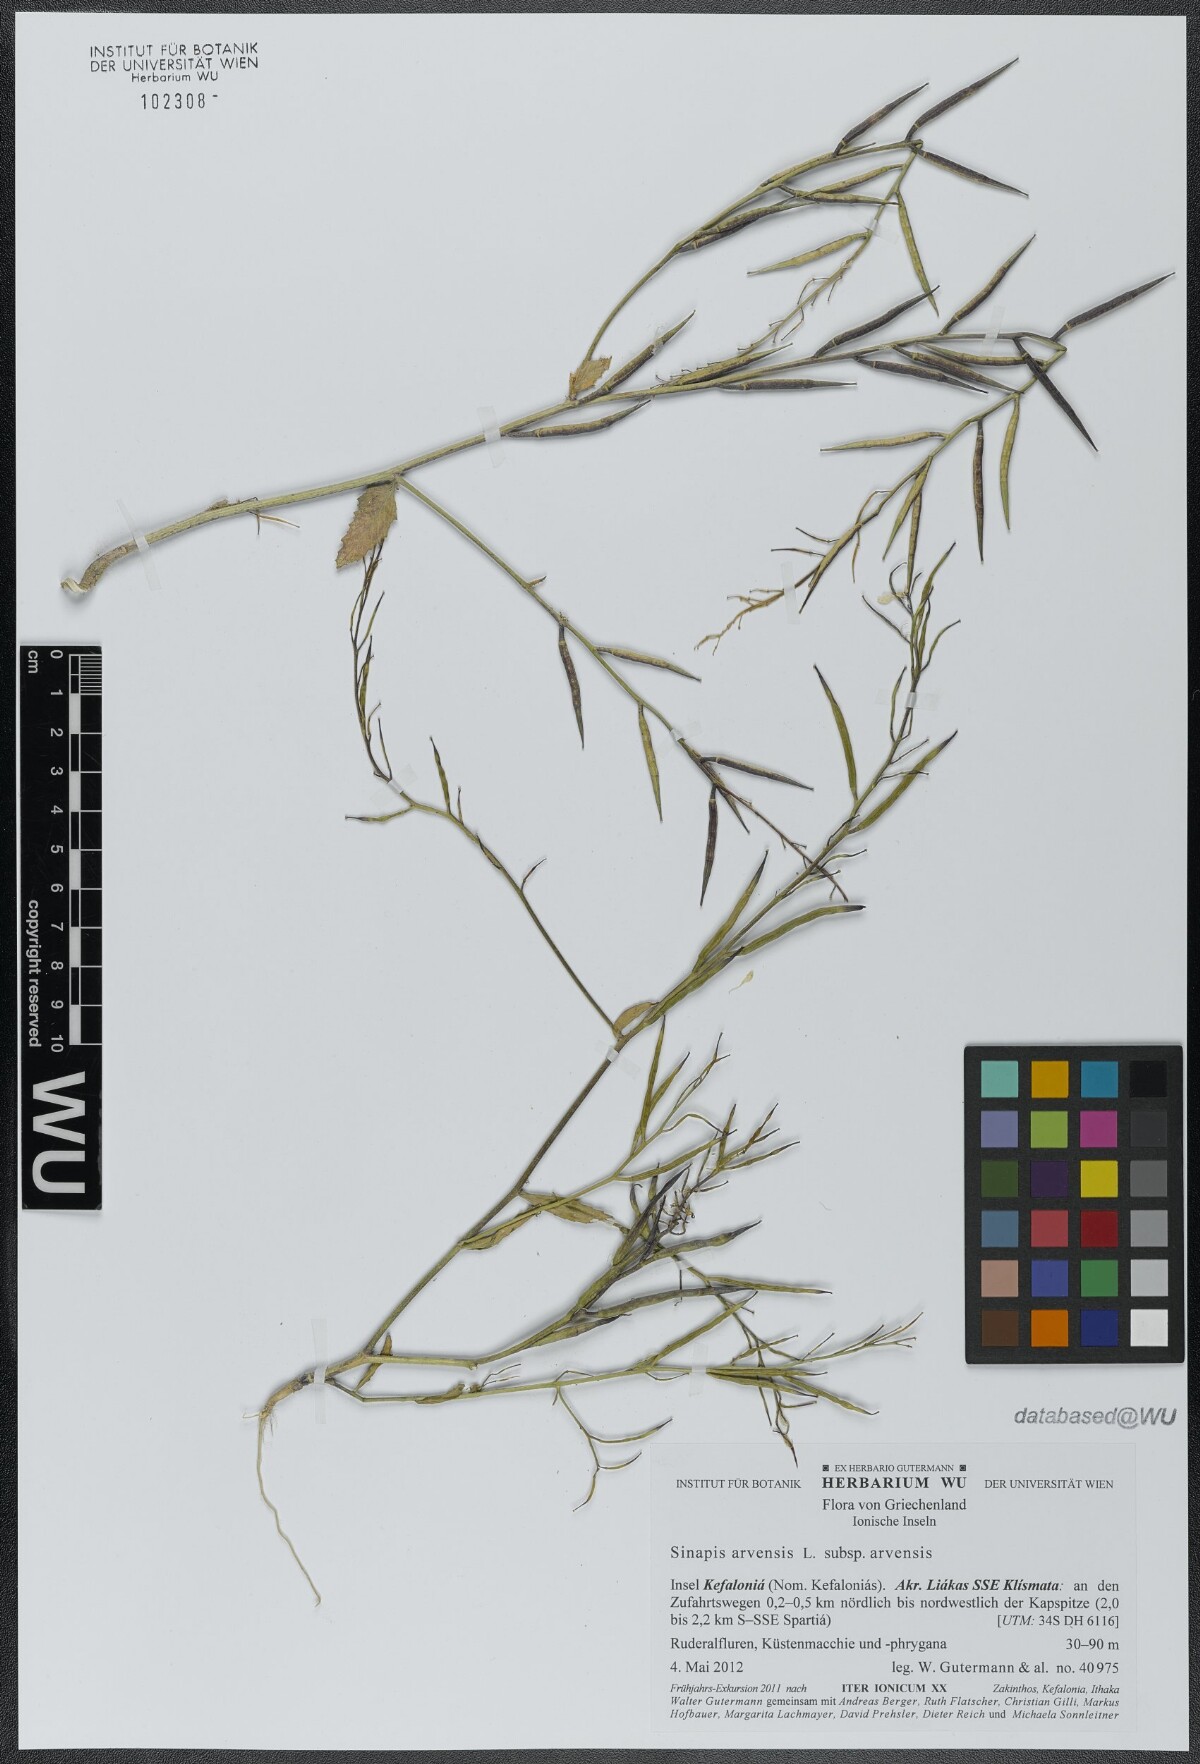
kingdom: Plantae
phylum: Tracheophyta
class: Magnoliopsida
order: Brassicales
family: Brassicaceae
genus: Sinapis
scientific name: Sinapis arvensis
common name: Charlock
